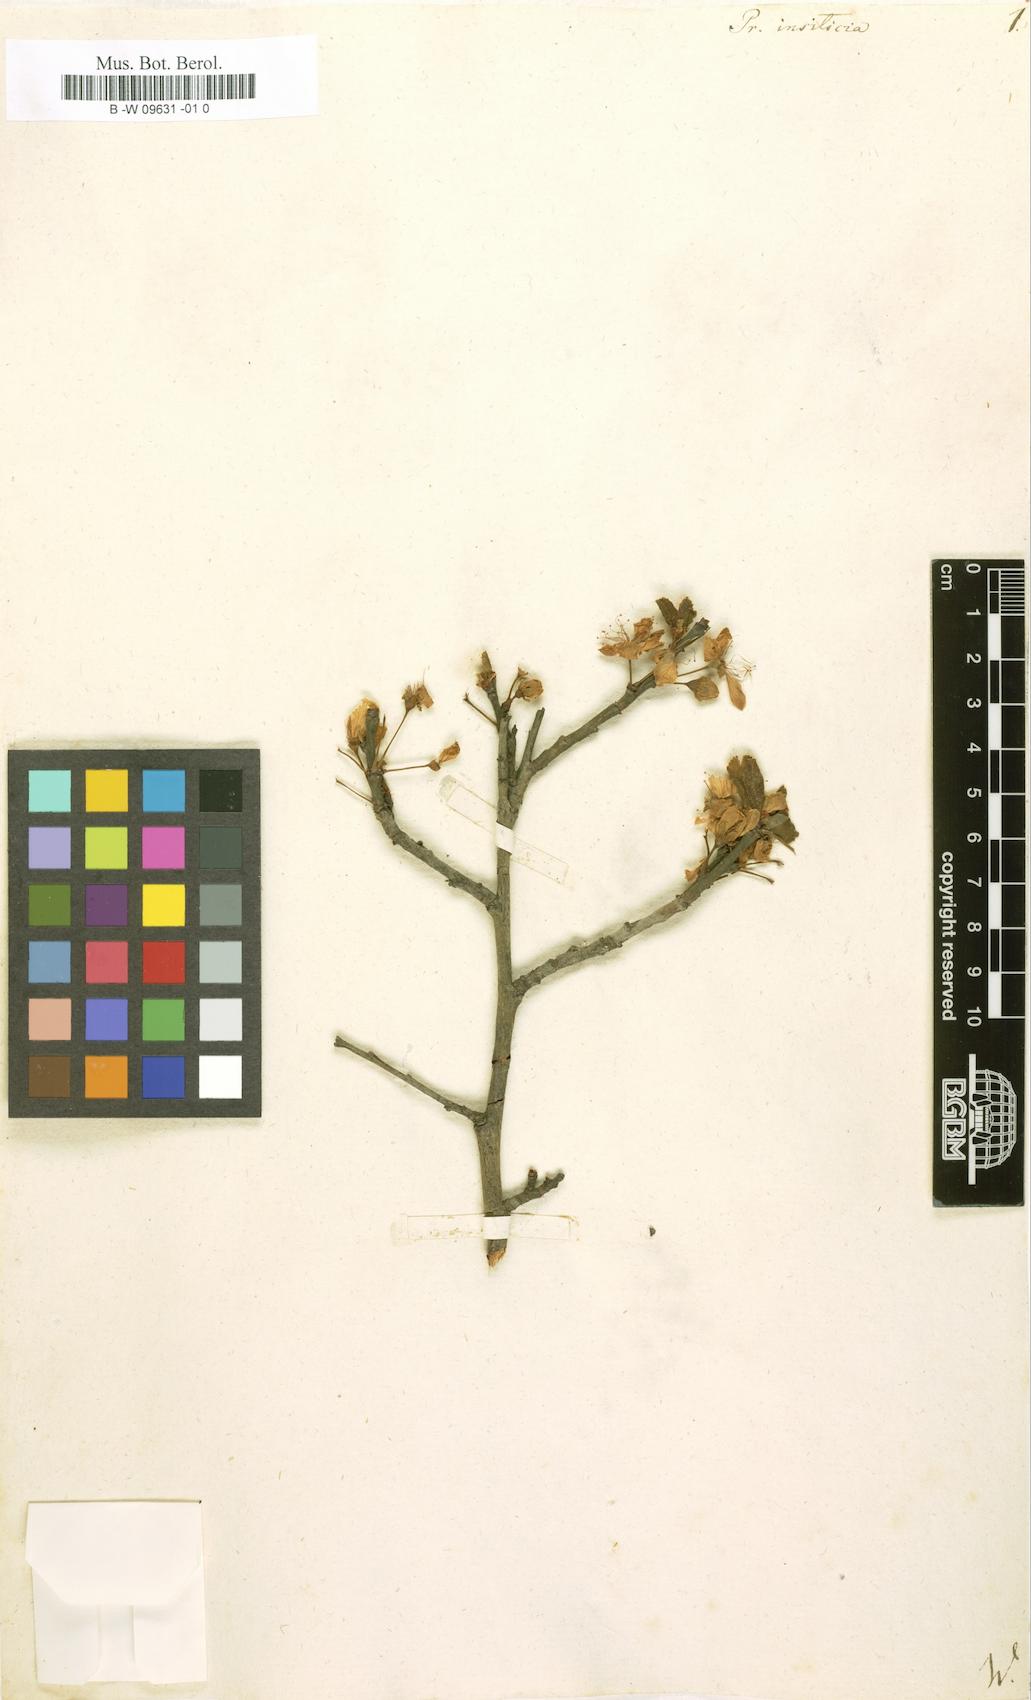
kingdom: Plantae
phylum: Tracheophyta
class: Magnoliopsida
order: Rosales
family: Rosaceae
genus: Prunus
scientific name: Prunus
